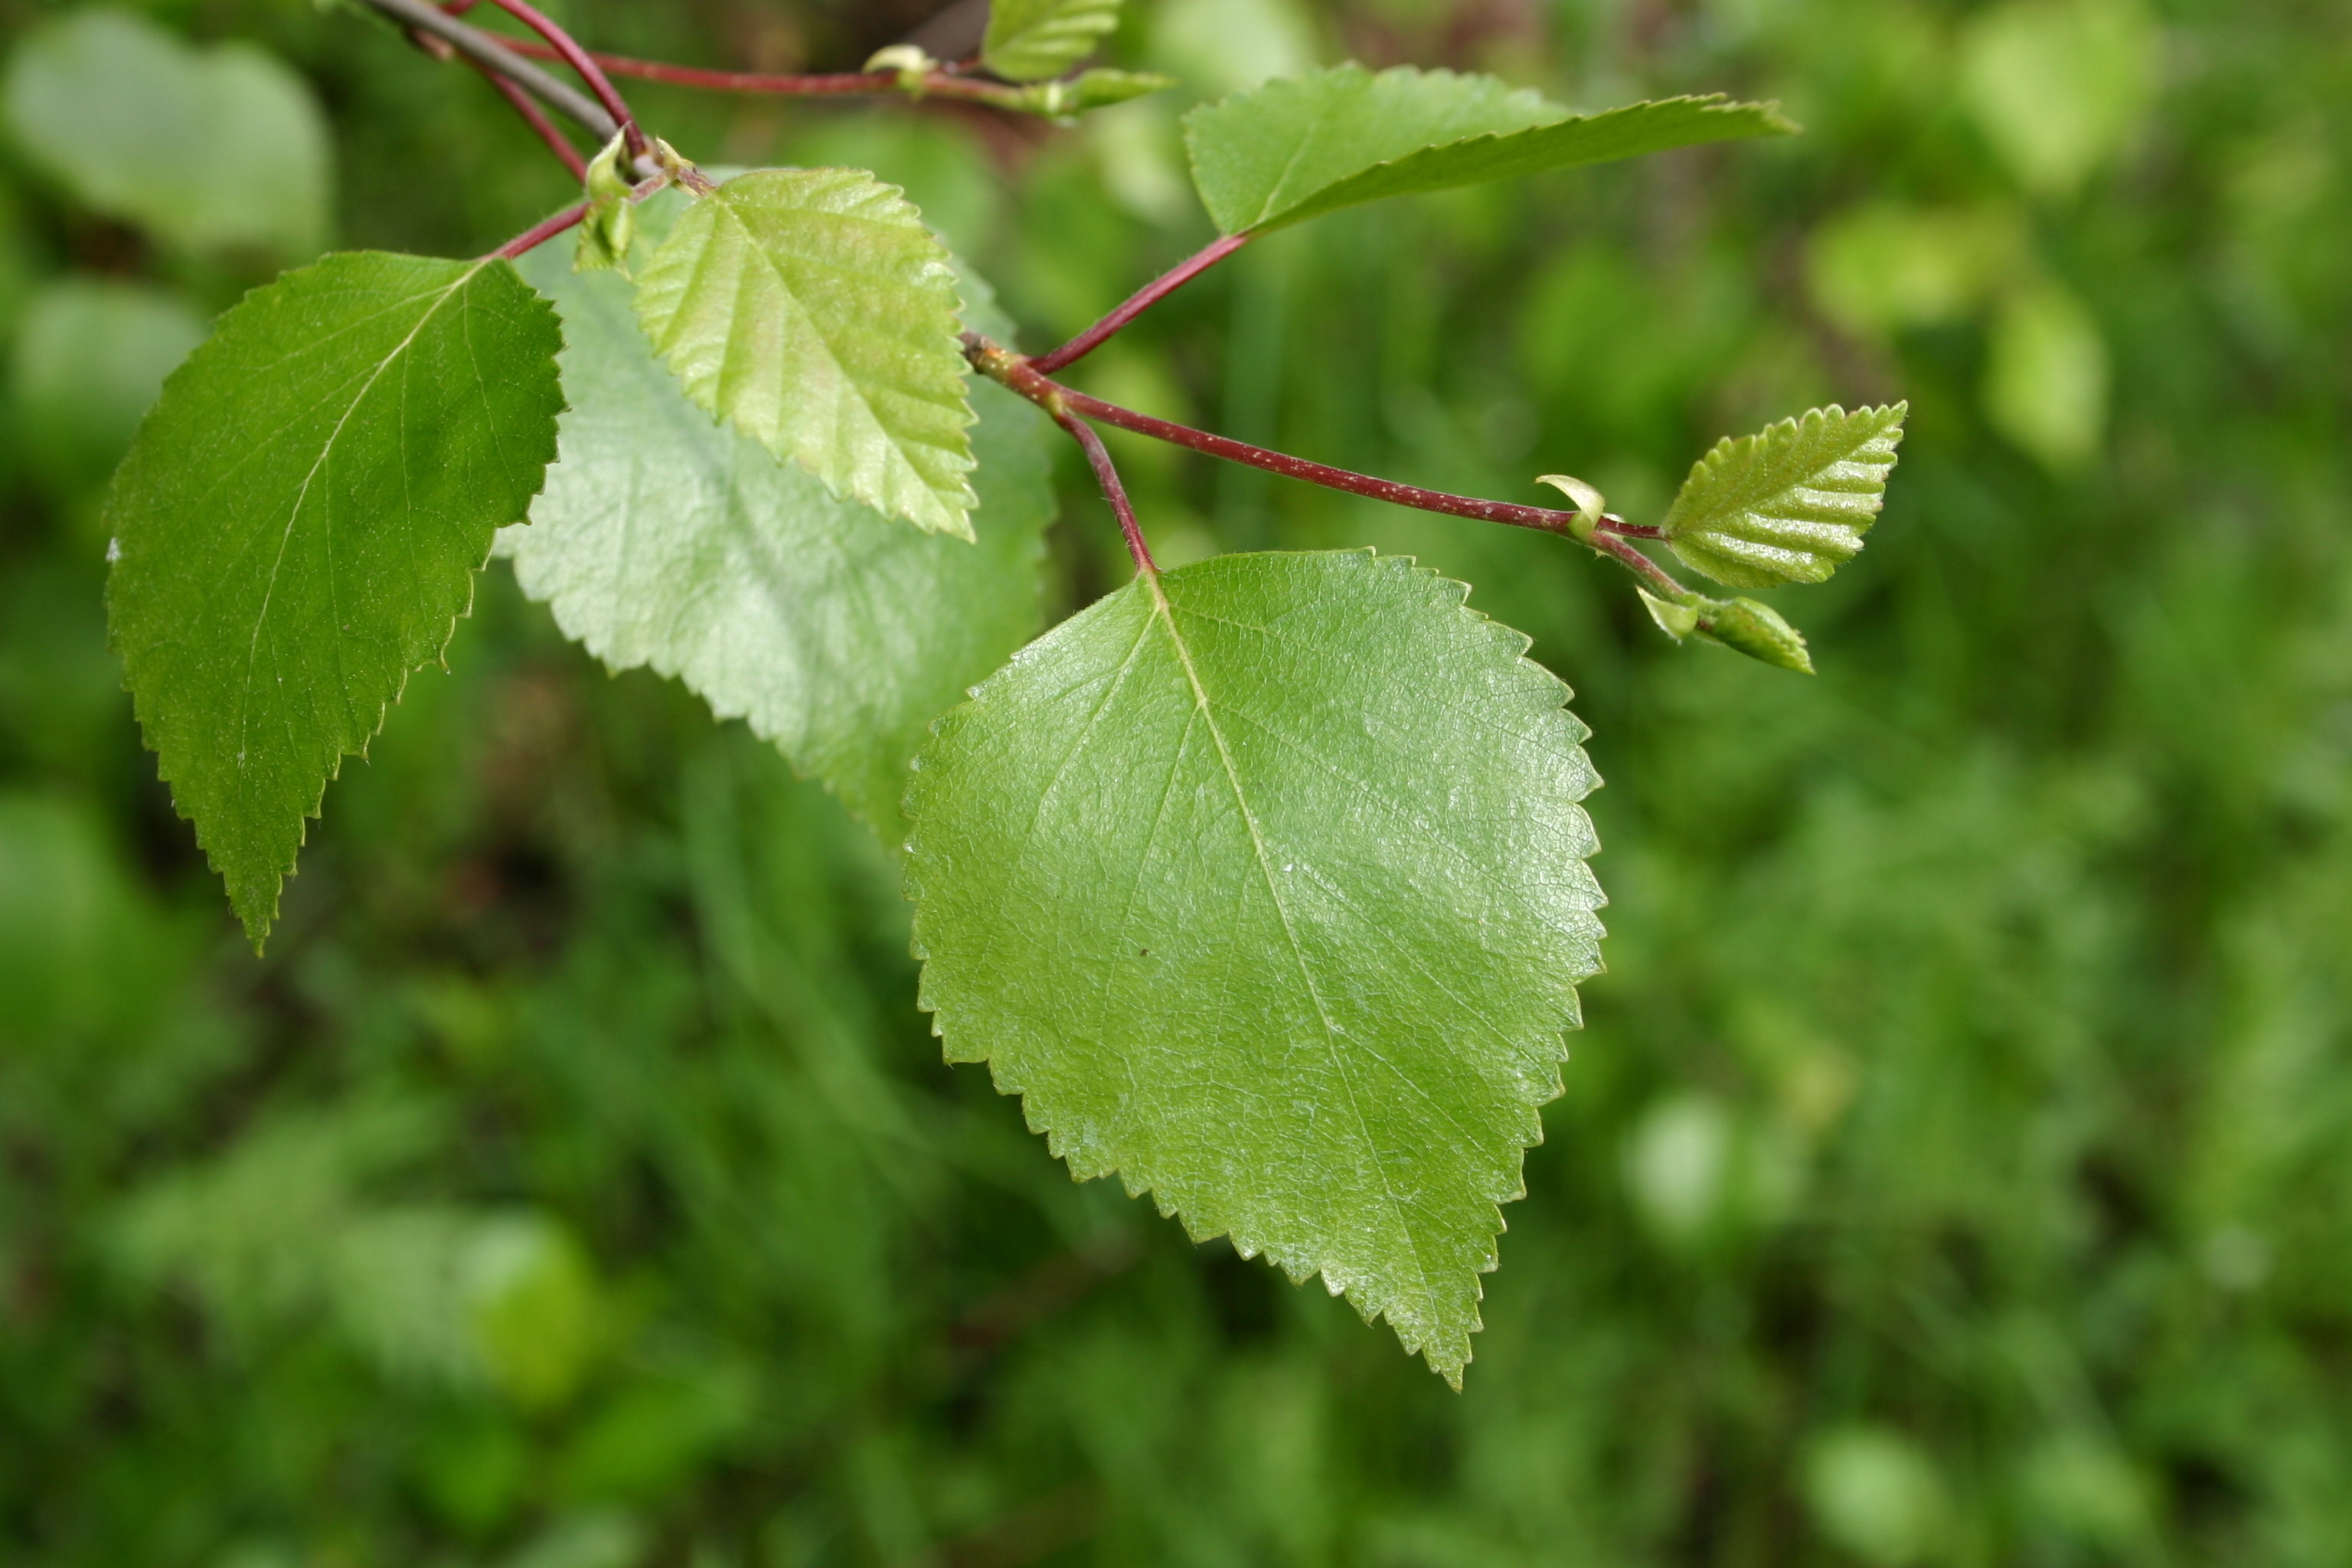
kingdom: Plantae
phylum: Tracheophyta
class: Magnoliopsida
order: Fagales
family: Betulaceae
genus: Betula
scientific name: Betula pubescens
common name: Downy birch
